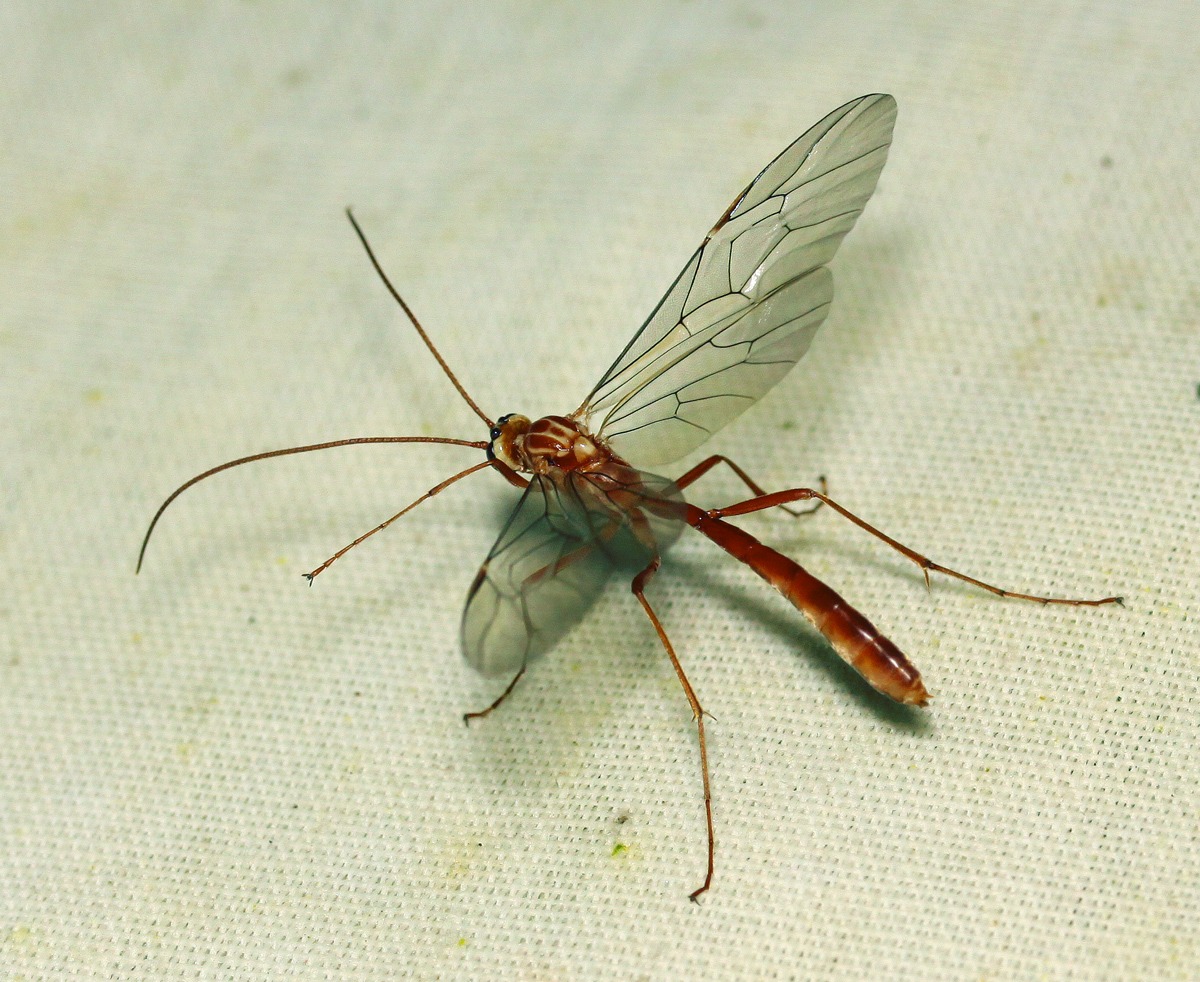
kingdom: Animalia
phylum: Arthropoda
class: Insecta
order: Hymenoptera
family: Ichneumonidae
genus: Ophion
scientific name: Ophion obscuratus
